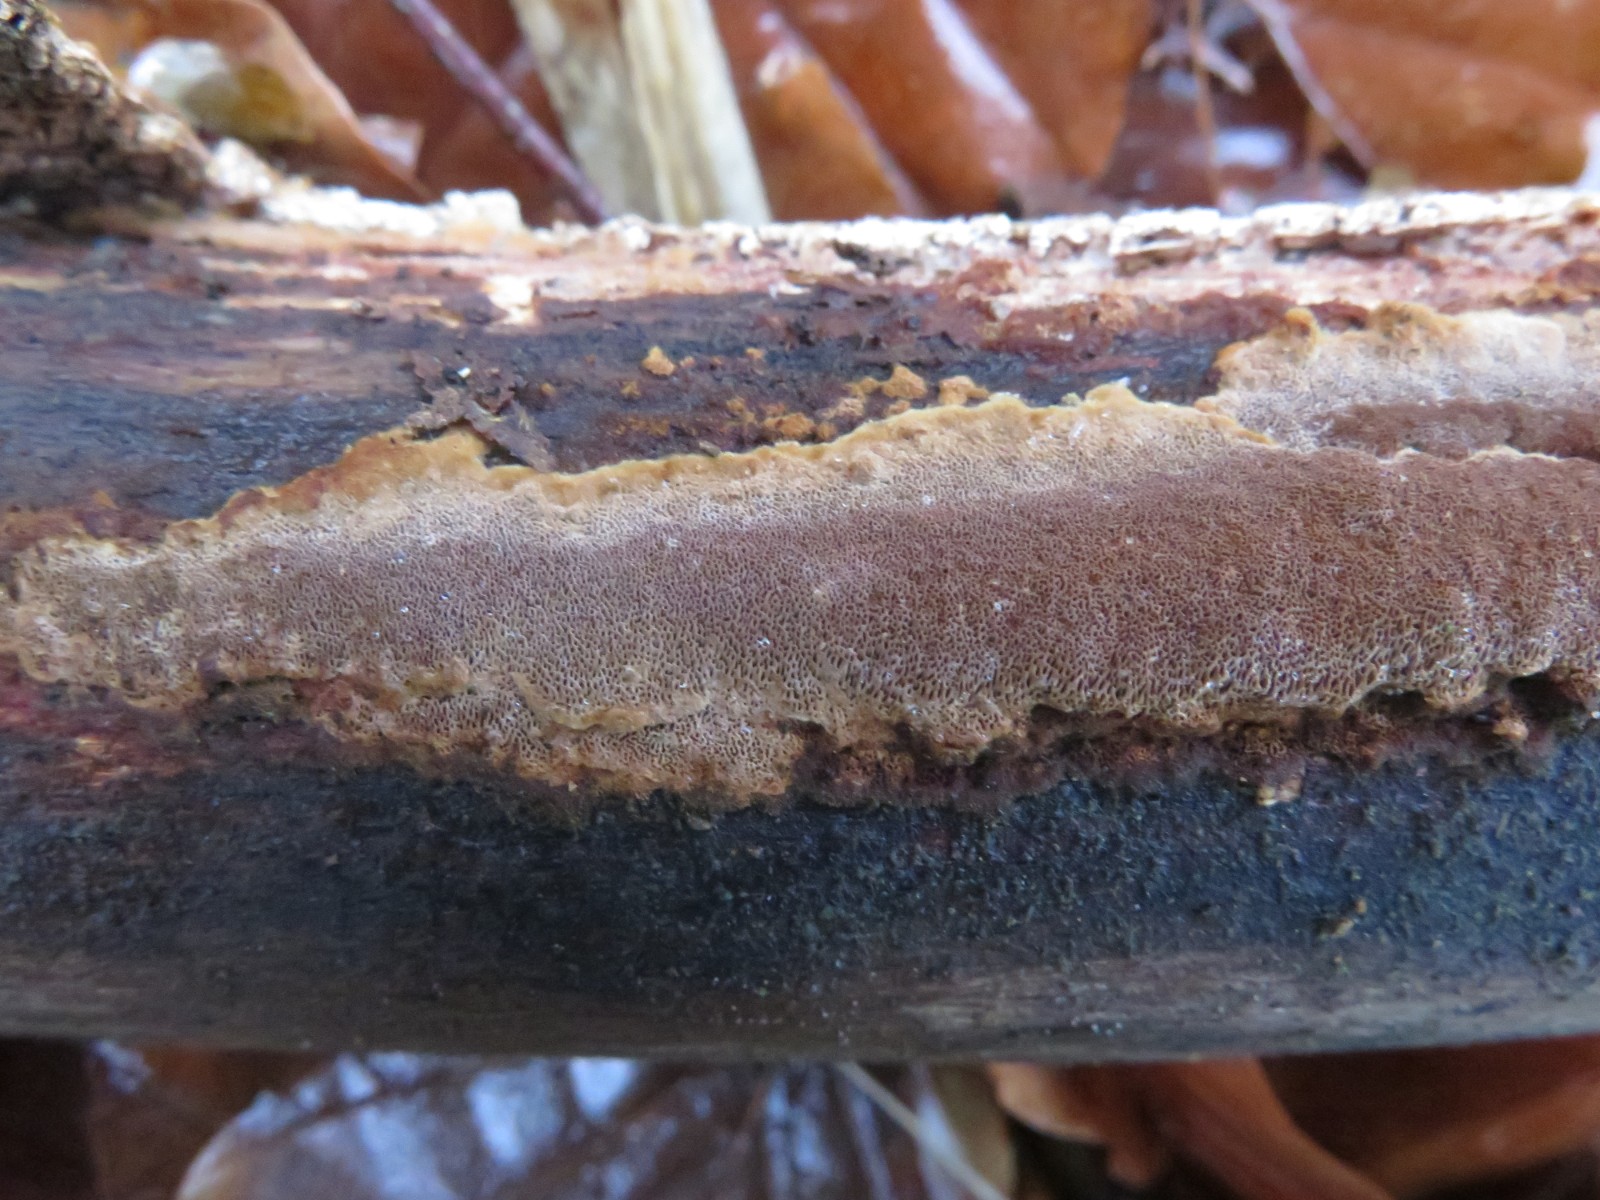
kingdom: Fungi
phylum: Basidiomycota
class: Agaricomycetes
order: Hymenochaetales
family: Hymenochaetaceae
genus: Fuscoporia
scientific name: Fuscoporia ferrea
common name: skorpe-ildporesvamp
